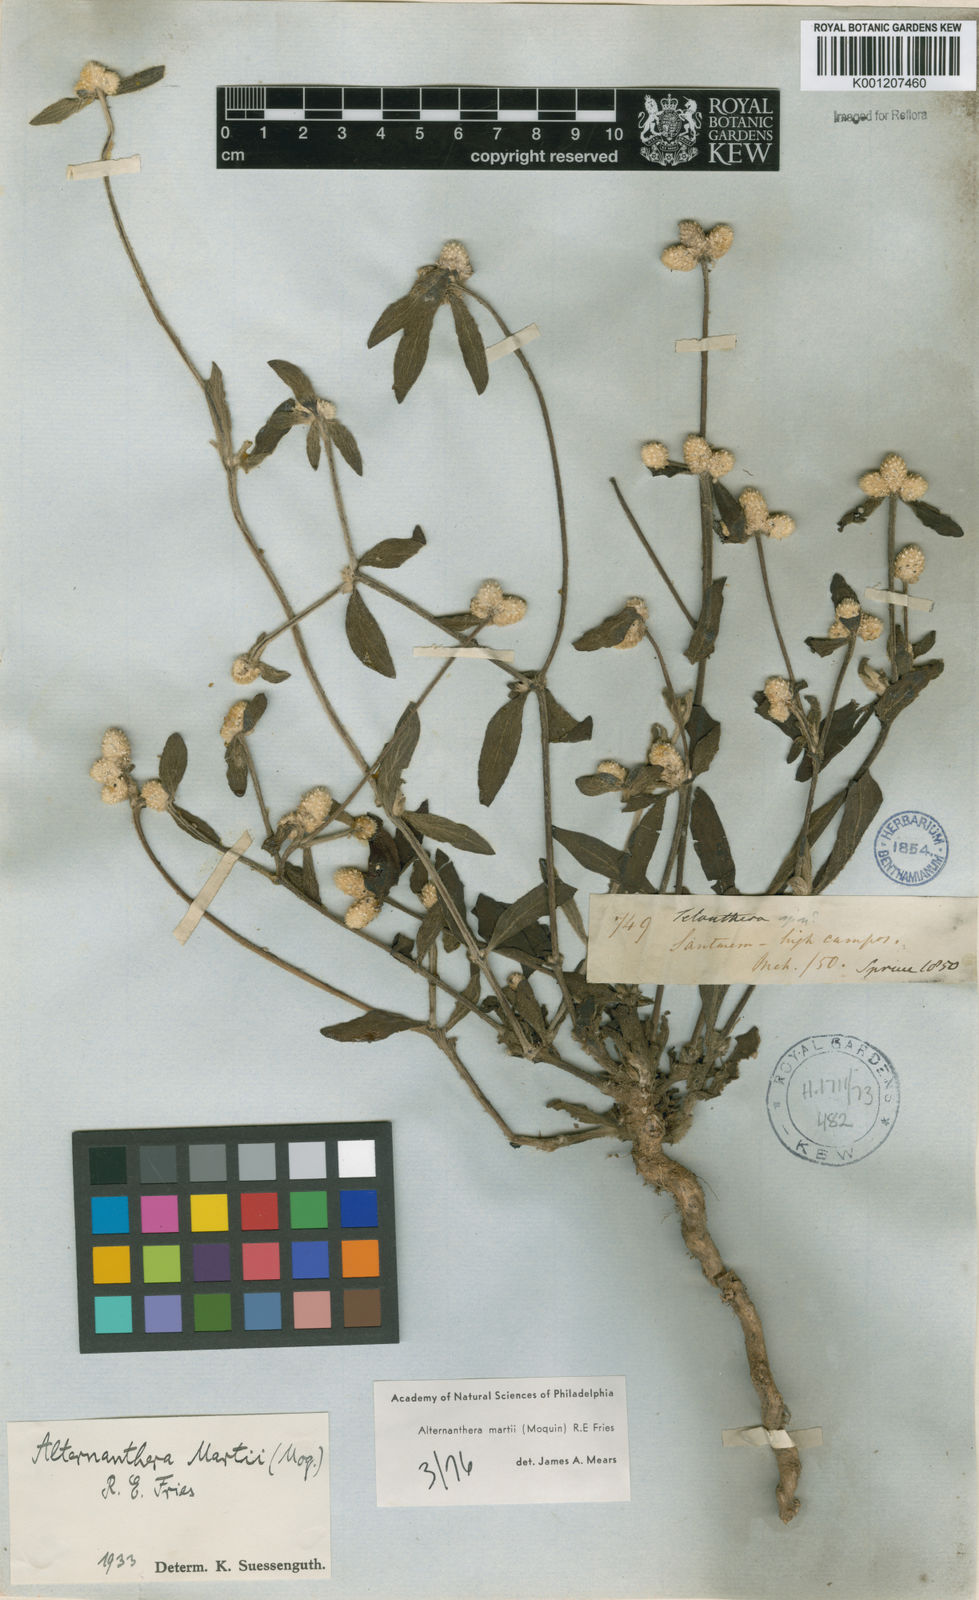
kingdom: Plantae
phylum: Tracheophyta
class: Magnoliopsida
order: Caryophyllales
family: Amaranthaceae
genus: Alternanthera
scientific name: Alternanthera martii
